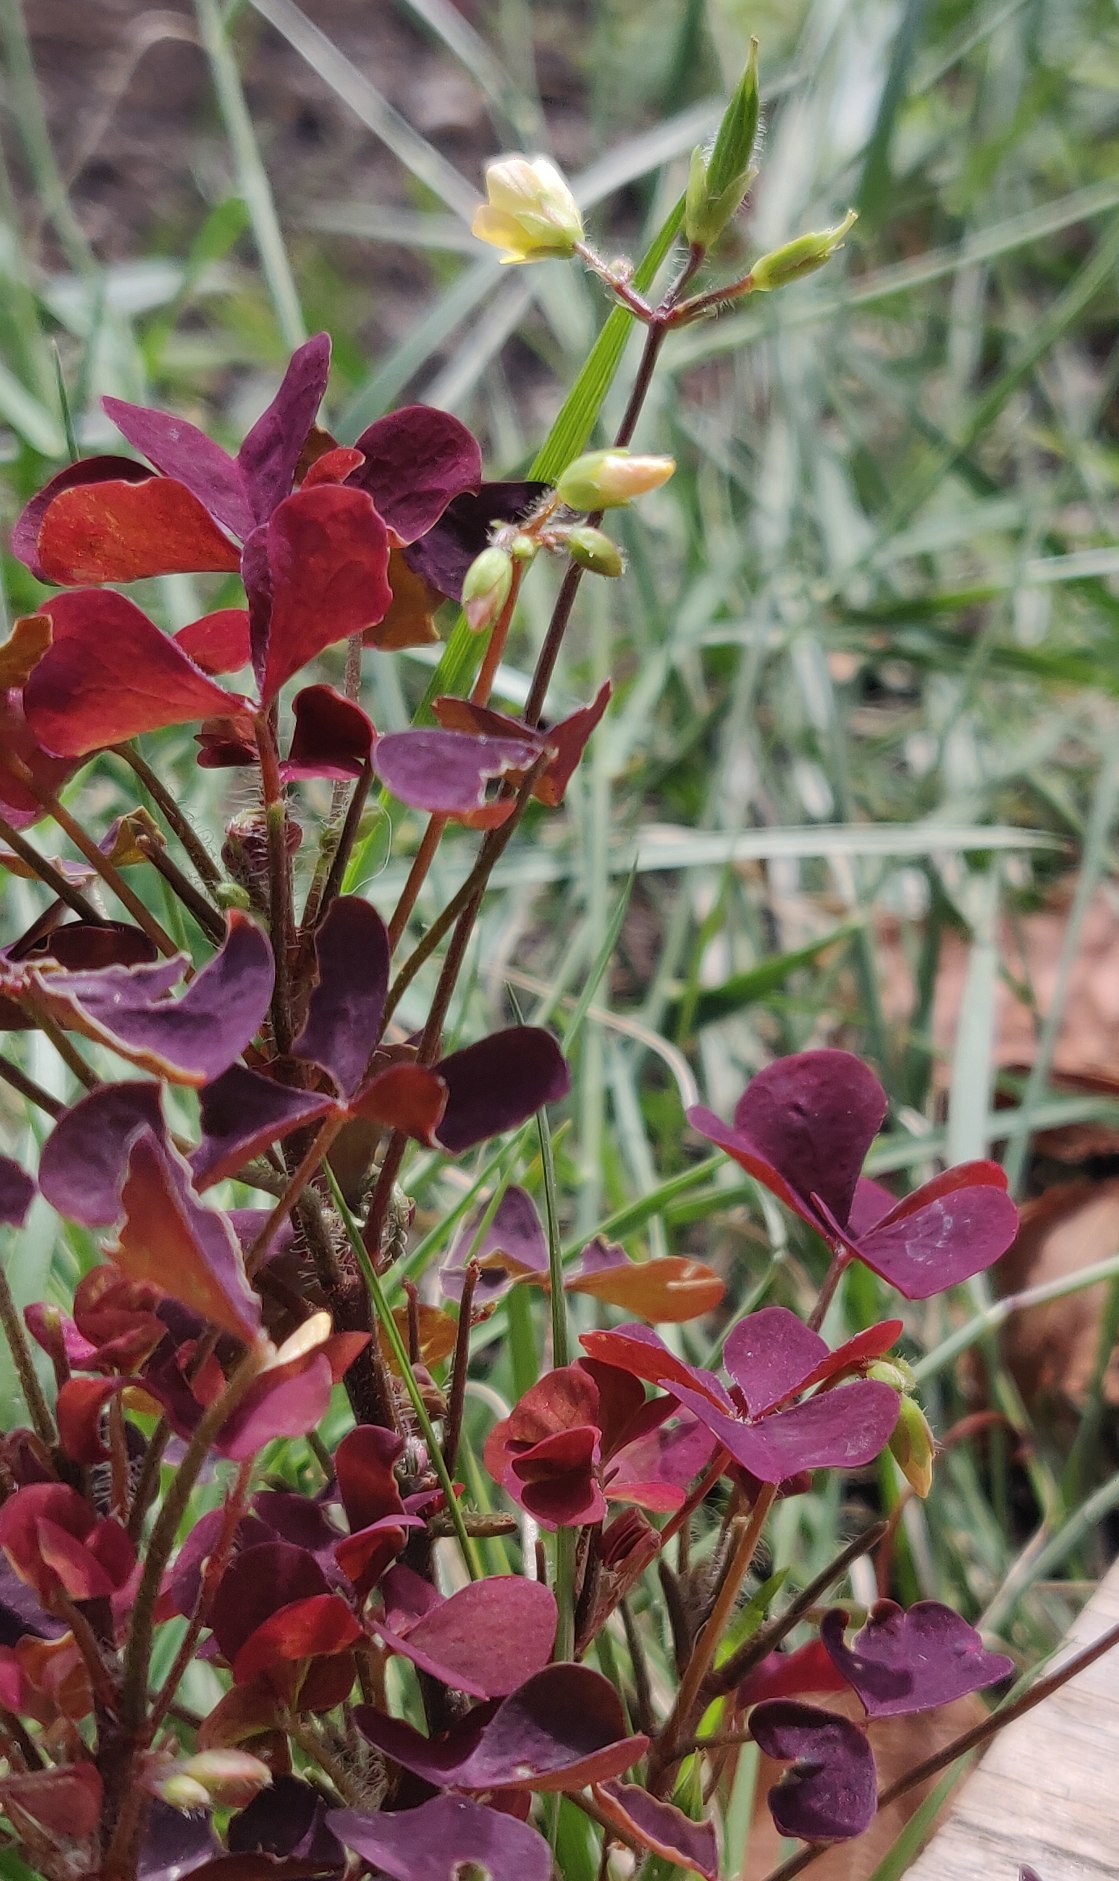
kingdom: Plantae
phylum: Tracheophyta
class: Magnoliopsida
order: Oxalidales
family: Oxalidaceae
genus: Oxalis
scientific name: Oxalis stricta
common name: Rank surkløver
